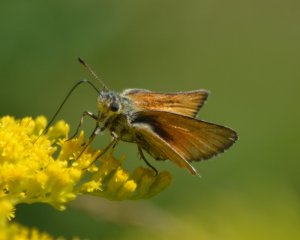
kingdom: Animalia
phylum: Arthropoda
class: Insecta
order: Lepidoptera
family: Hesperiidae
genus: Thymelicus
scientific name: Thymelicus lineola
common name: European Skipper
